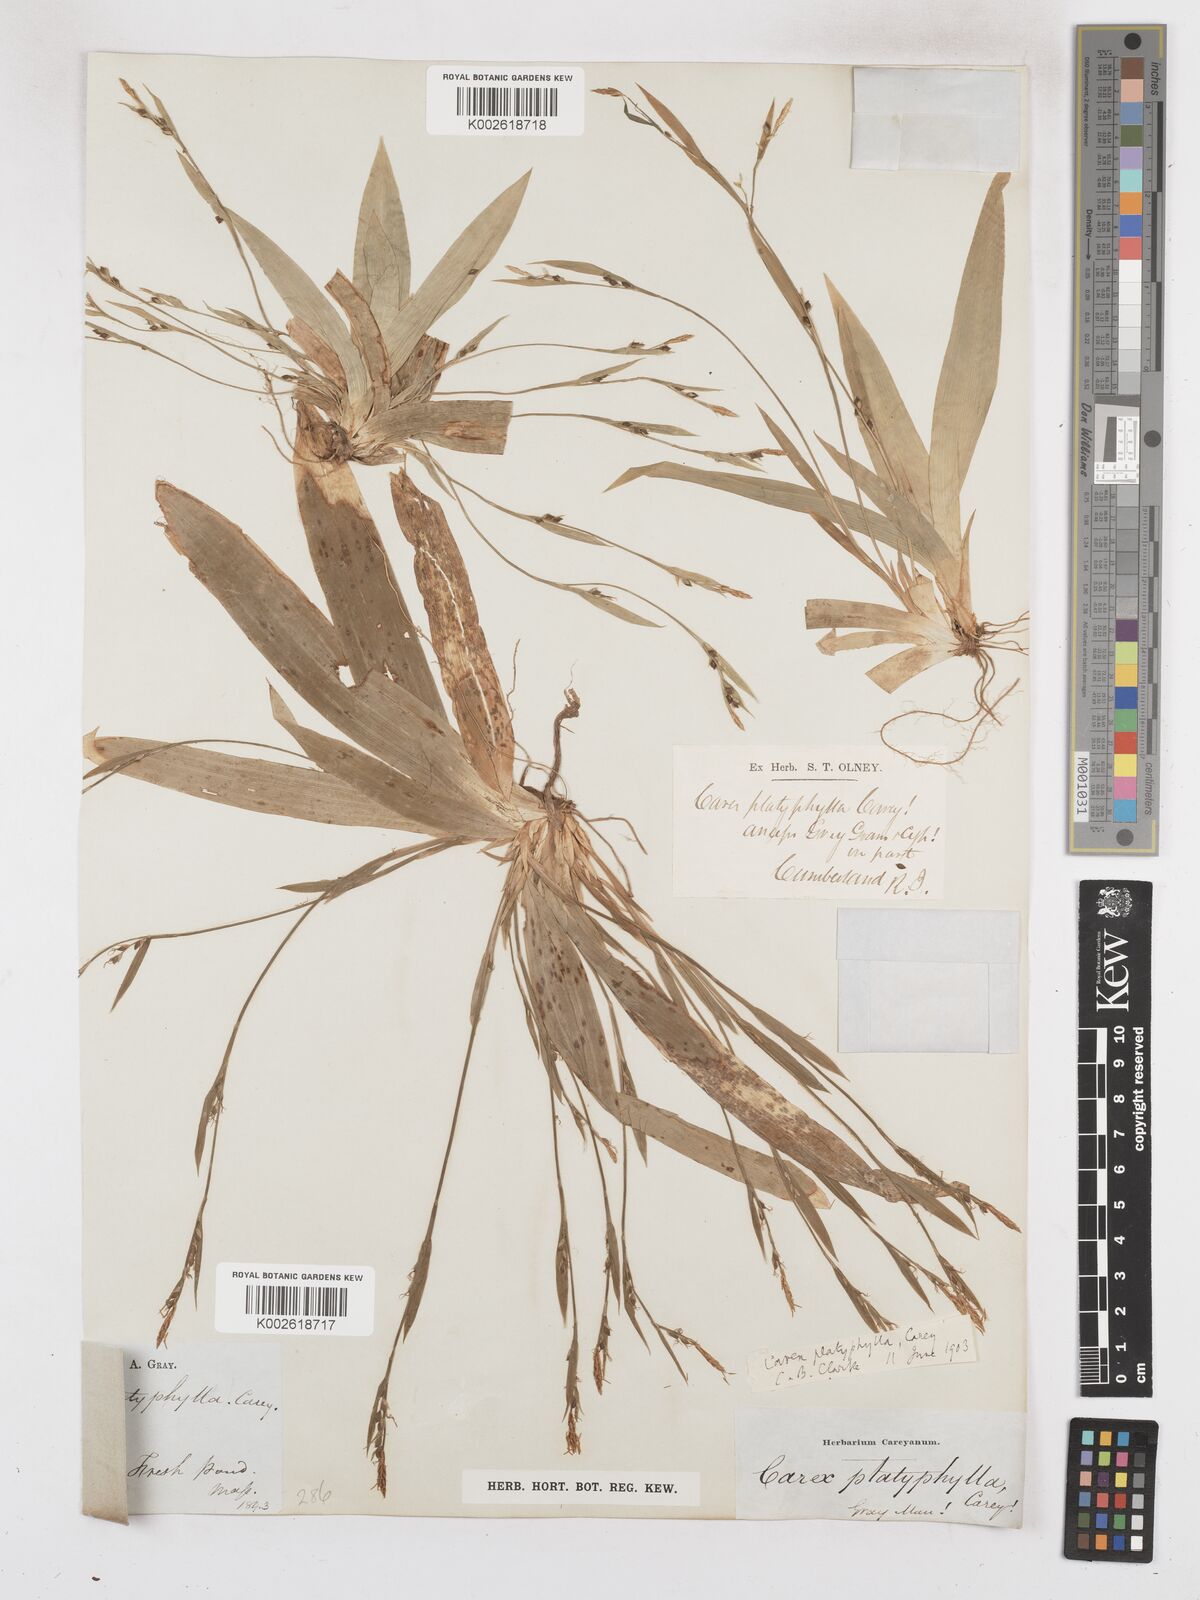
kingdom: Plantae
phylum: Tracheophyta
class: Liliopsida
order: Poales
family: Cyperaceae
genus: Carex
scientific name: Carex platyphylla
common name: Broad-leaved sedge
